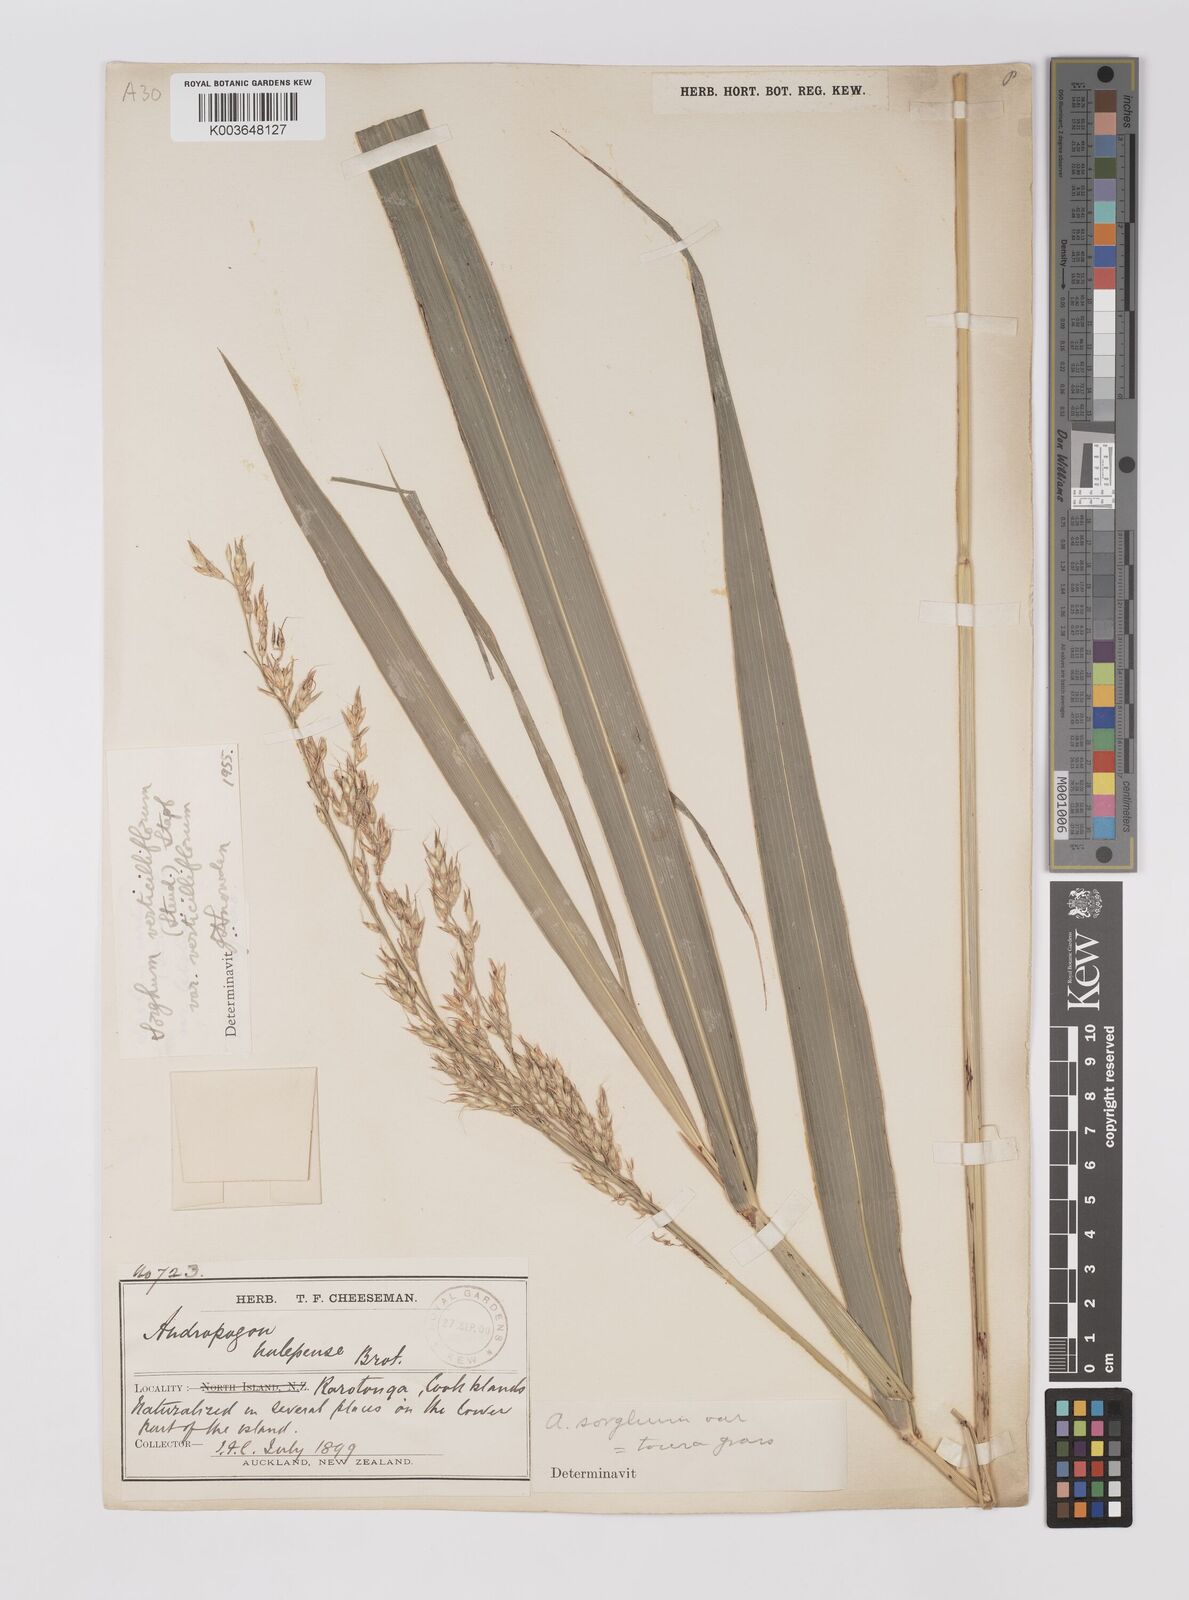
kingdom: Plantae
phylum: Tracheophyta
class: Liliopsida
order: Poales
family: Poaceae
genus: Sorghum
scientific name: Sorghum arundinaceum
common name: Sorghum
